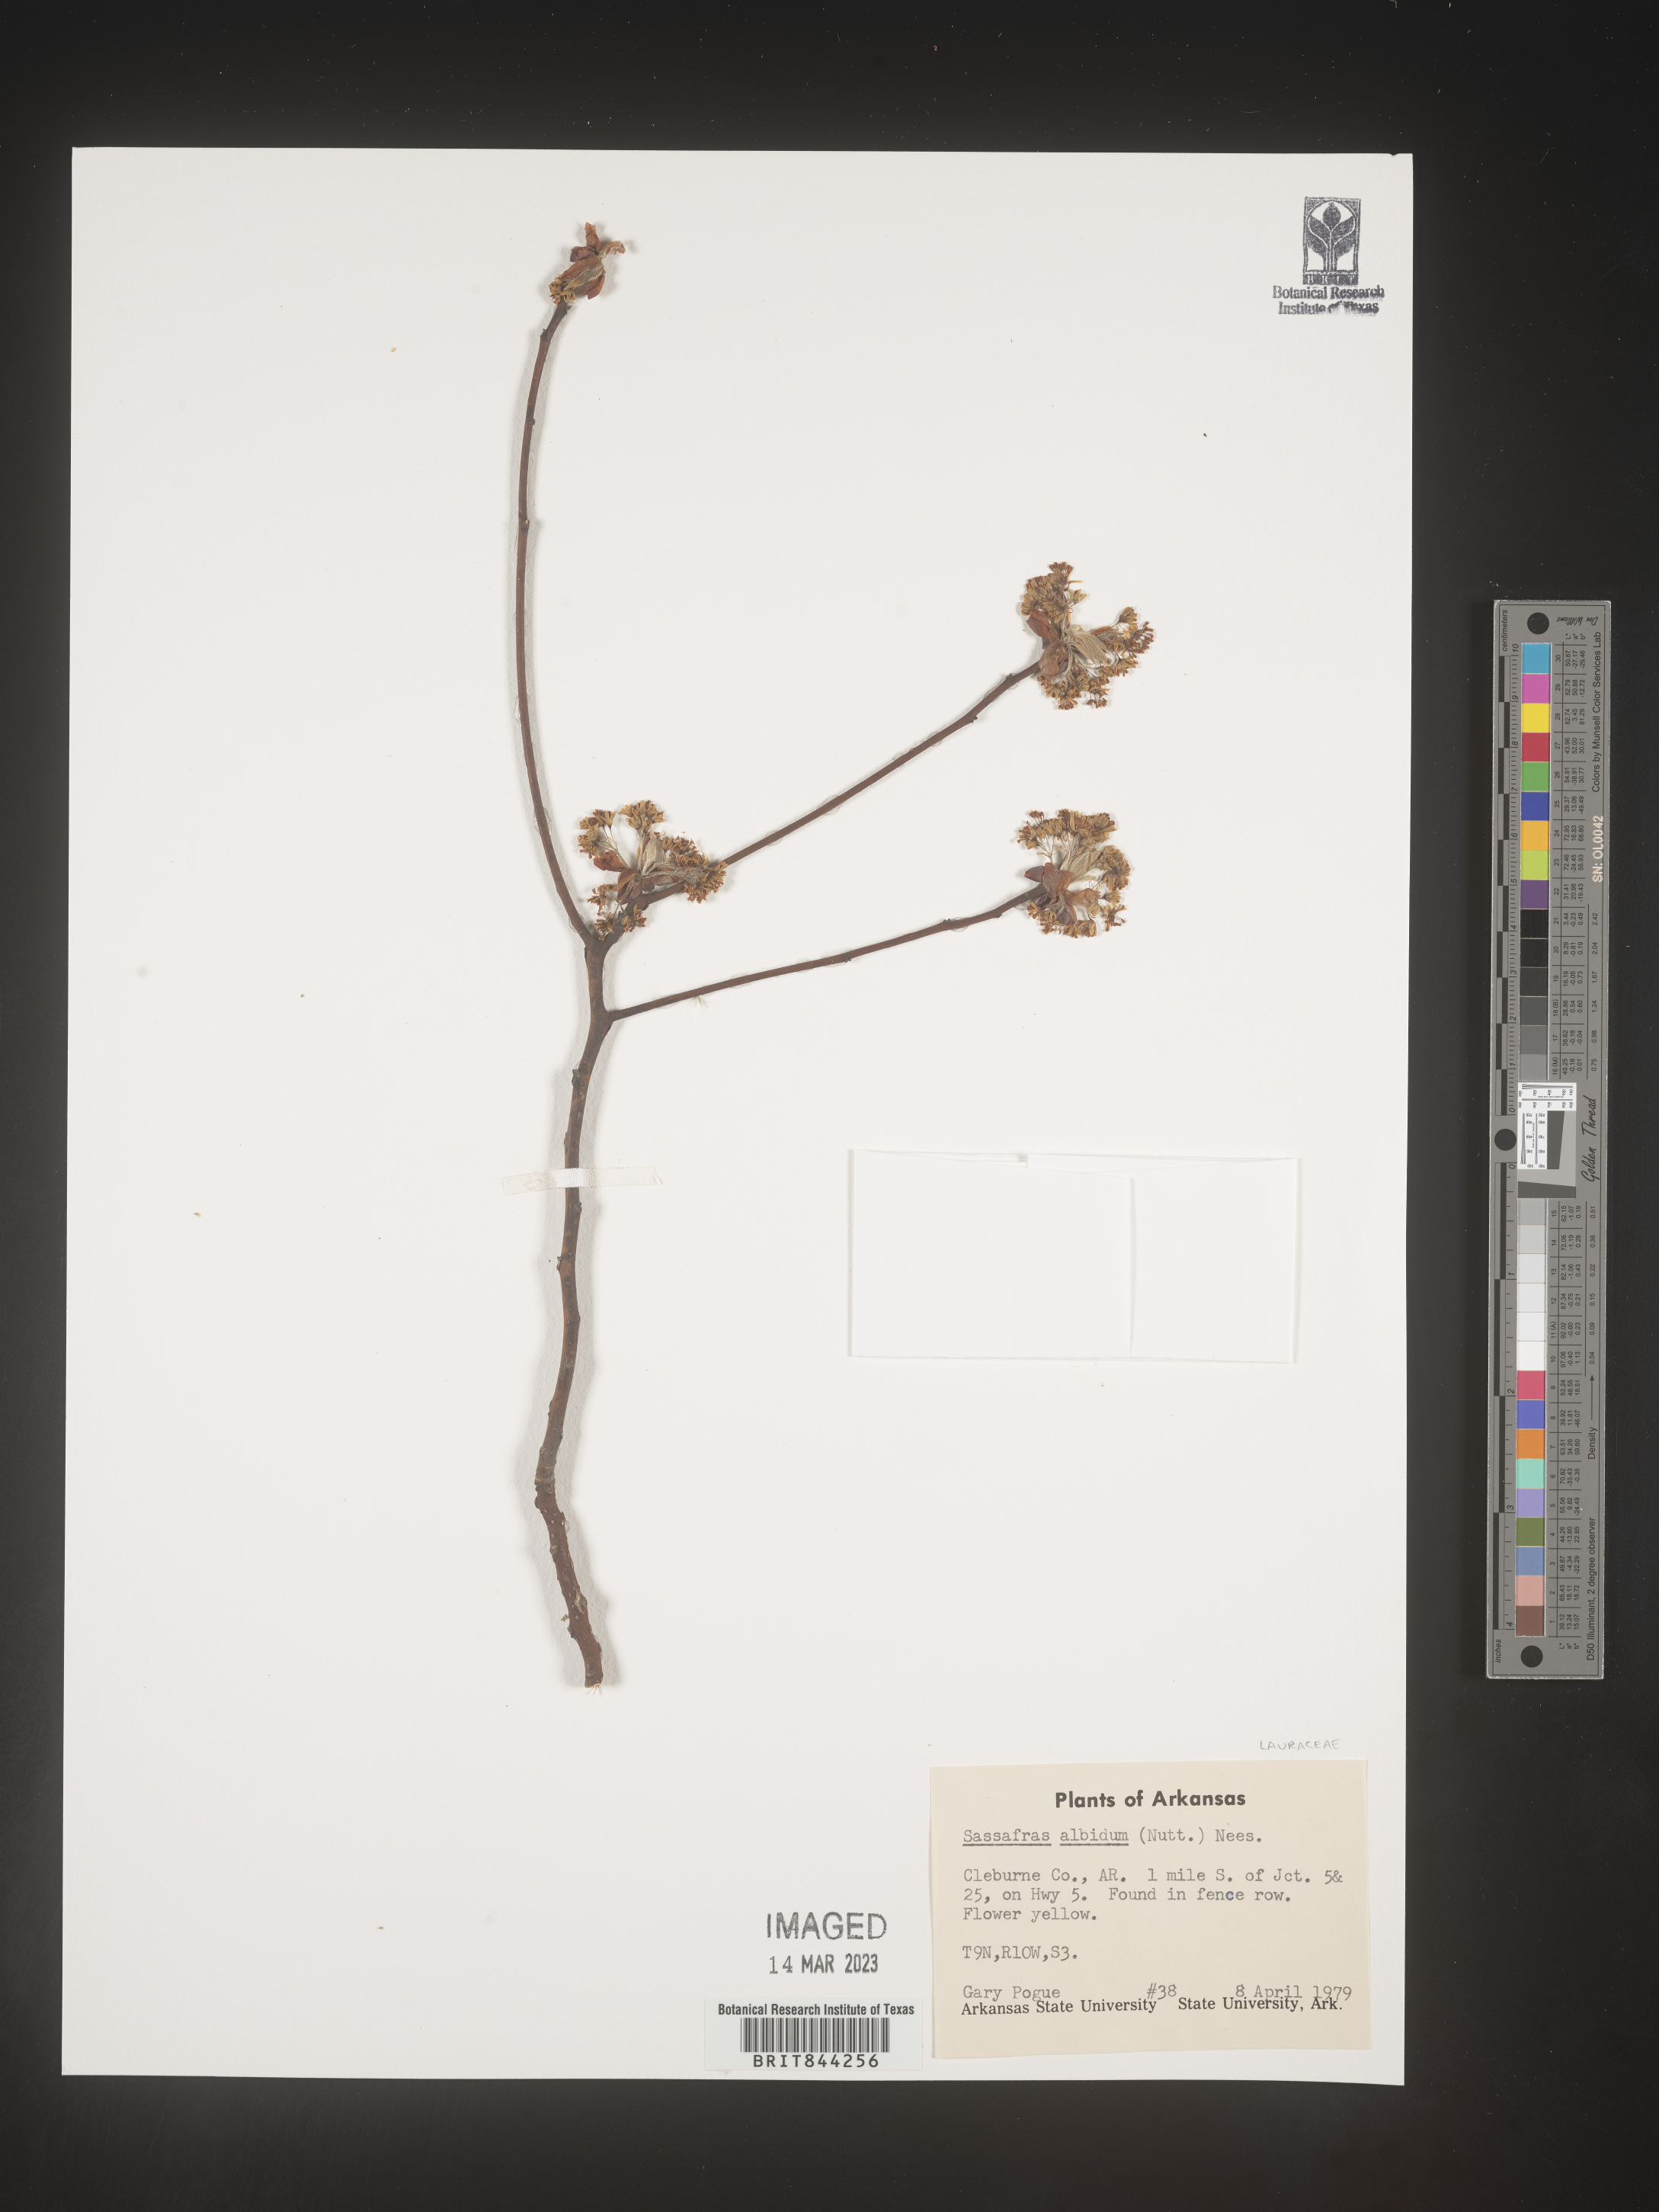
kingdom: Plantae
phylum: Tracheophyta
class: Magnoliopsida
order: Laurales
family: Lauraceae
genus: Sassafras
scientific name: Sassafras albidum
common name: Sassafras
